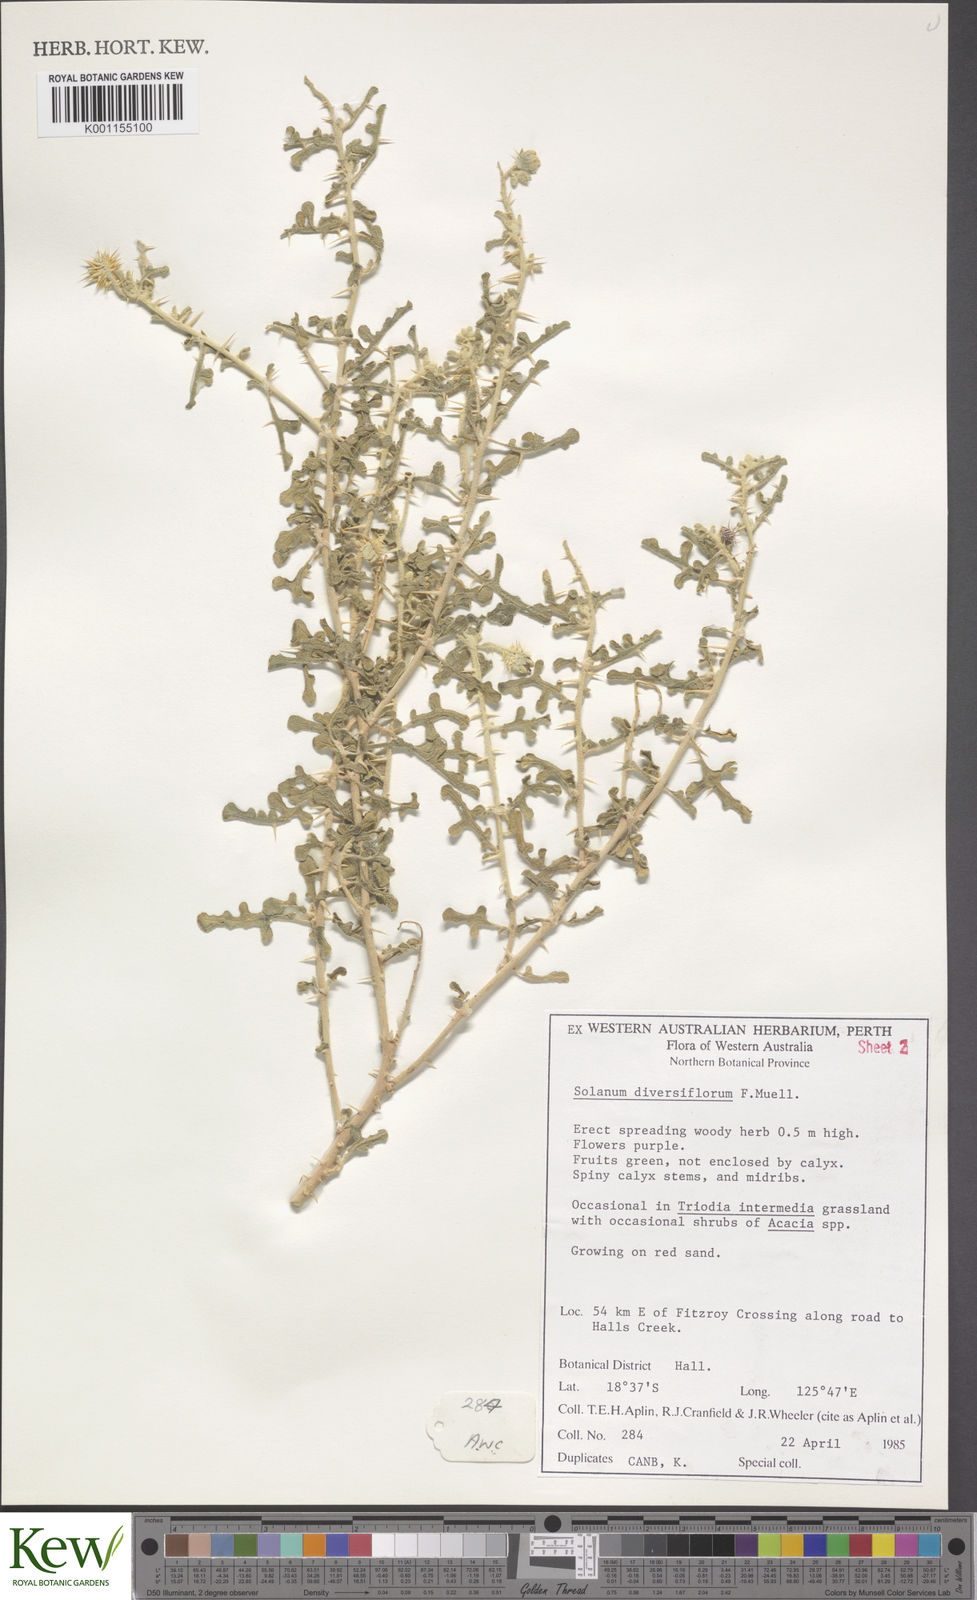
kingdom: Plantae
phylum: Tracheophyta
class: Magnoliopsida
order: Solanales
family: Solanaceae
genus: Solanum
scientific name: Solanum diversiflorum
